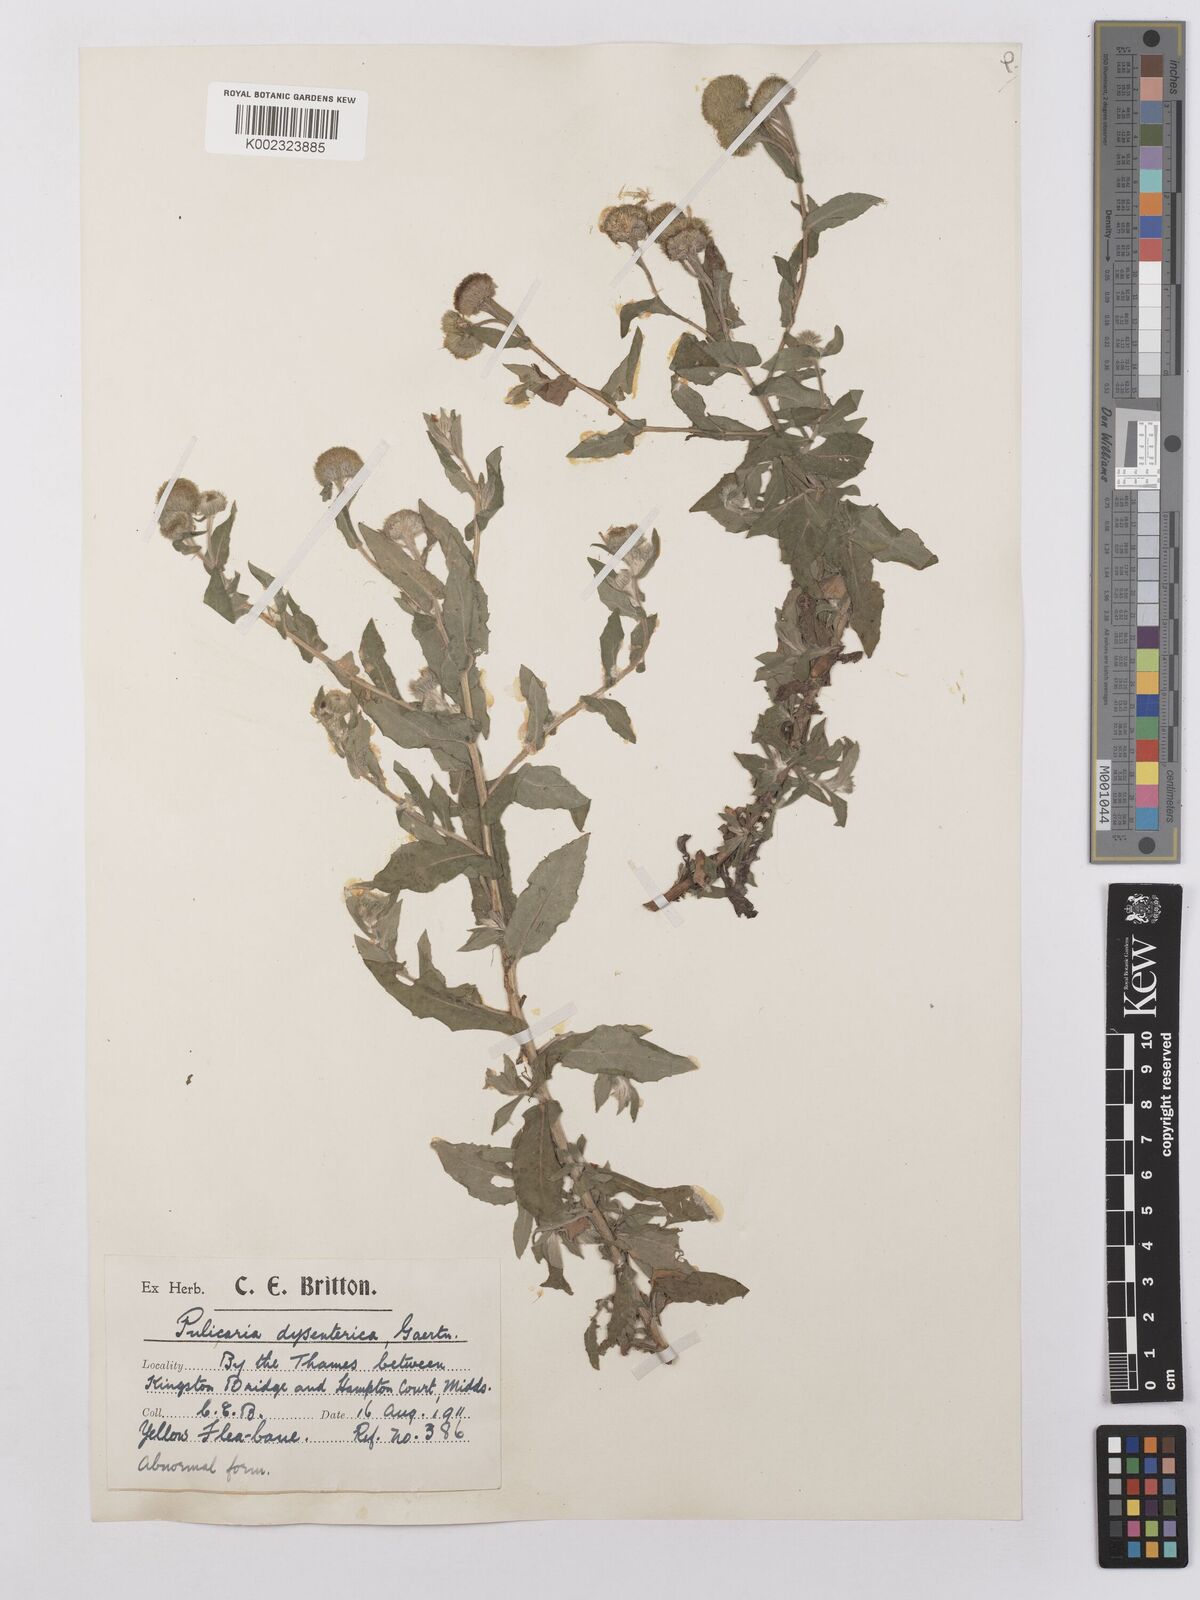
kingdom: Plantae
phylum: Tracheophyta
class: Magnoliopsida
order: Asterales
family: Asteraceae
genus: Pulicaria
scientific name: Pulicaria dysenterica
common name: Common fleabane
